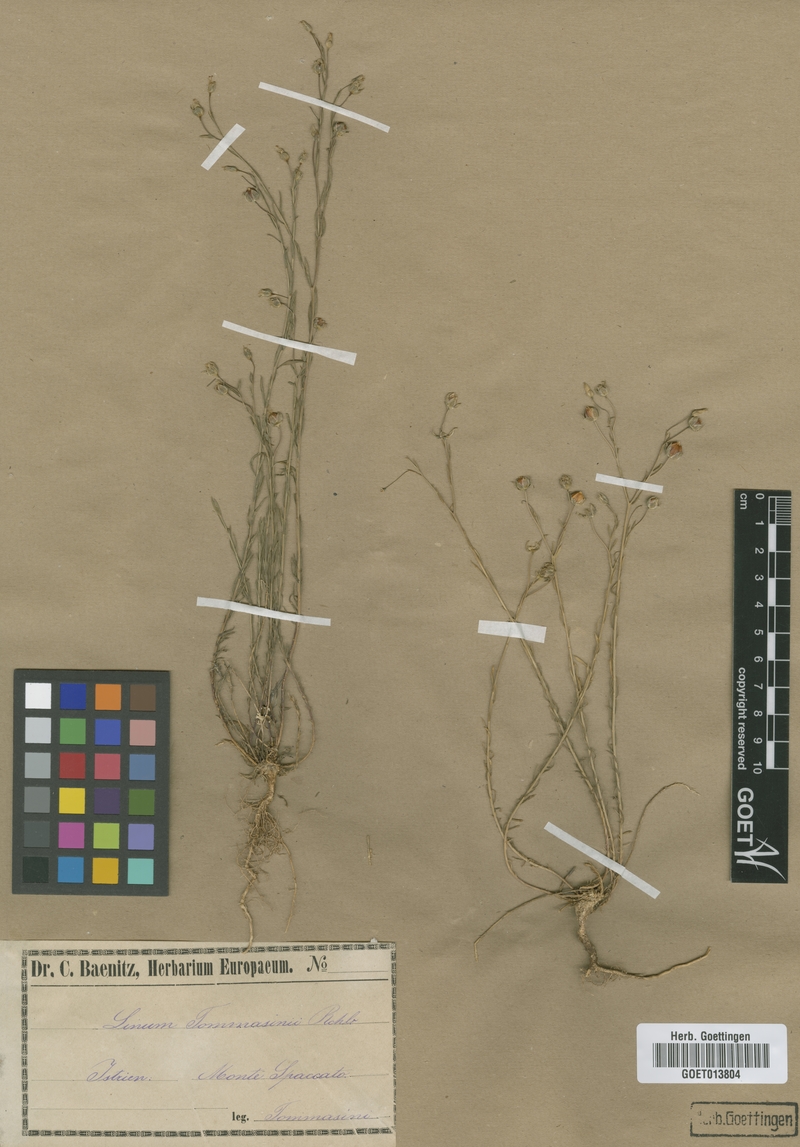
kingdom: Plantae
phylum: Tracheophyta
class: Magnoliopsida
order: Malpighiales
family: Linaceae
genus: Linum
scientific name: Linum austriacum
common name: Austrian flax
